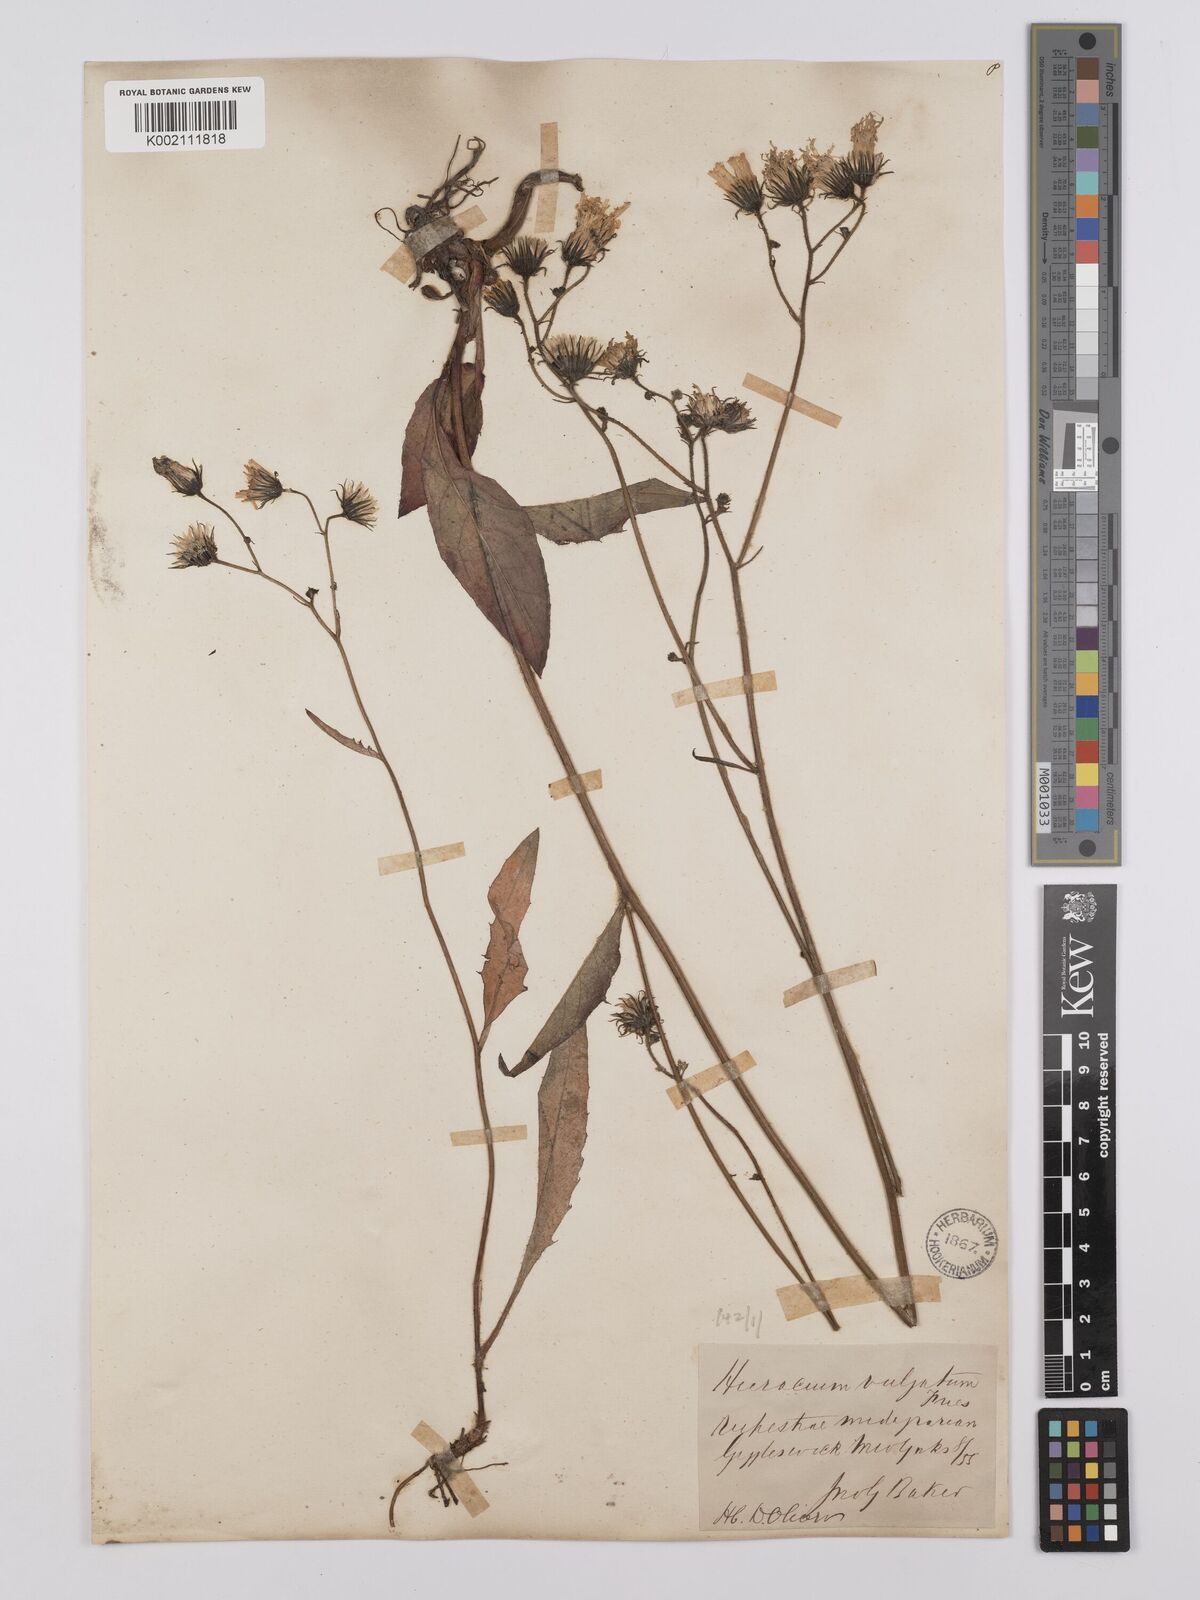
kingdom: Plantae
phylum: Tracheophyta
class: Magnoliopsida
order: Asterales
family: Asteraceae
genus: Hieracium
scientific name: Hieracium lachenalii
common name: Common hawkweed
